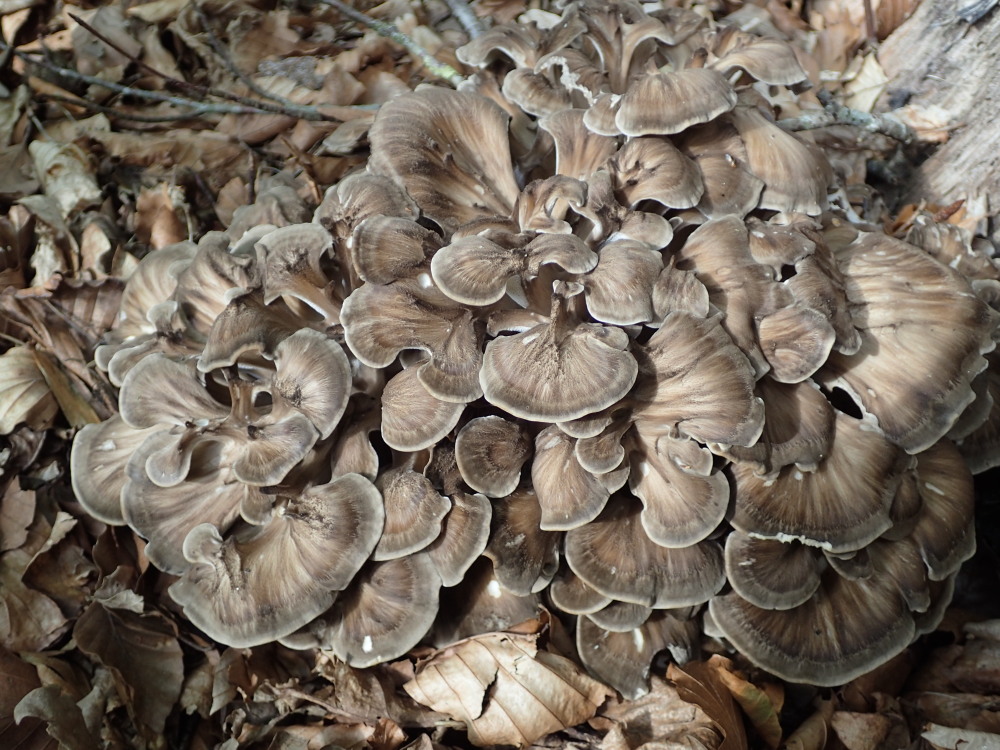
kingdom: Fungi
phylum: Basidiomycota
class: Agaricomycetes
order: Polyporales
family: Grifolaceae
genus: Grifola
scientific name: Grifola frondosa
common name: tueporesvamp
